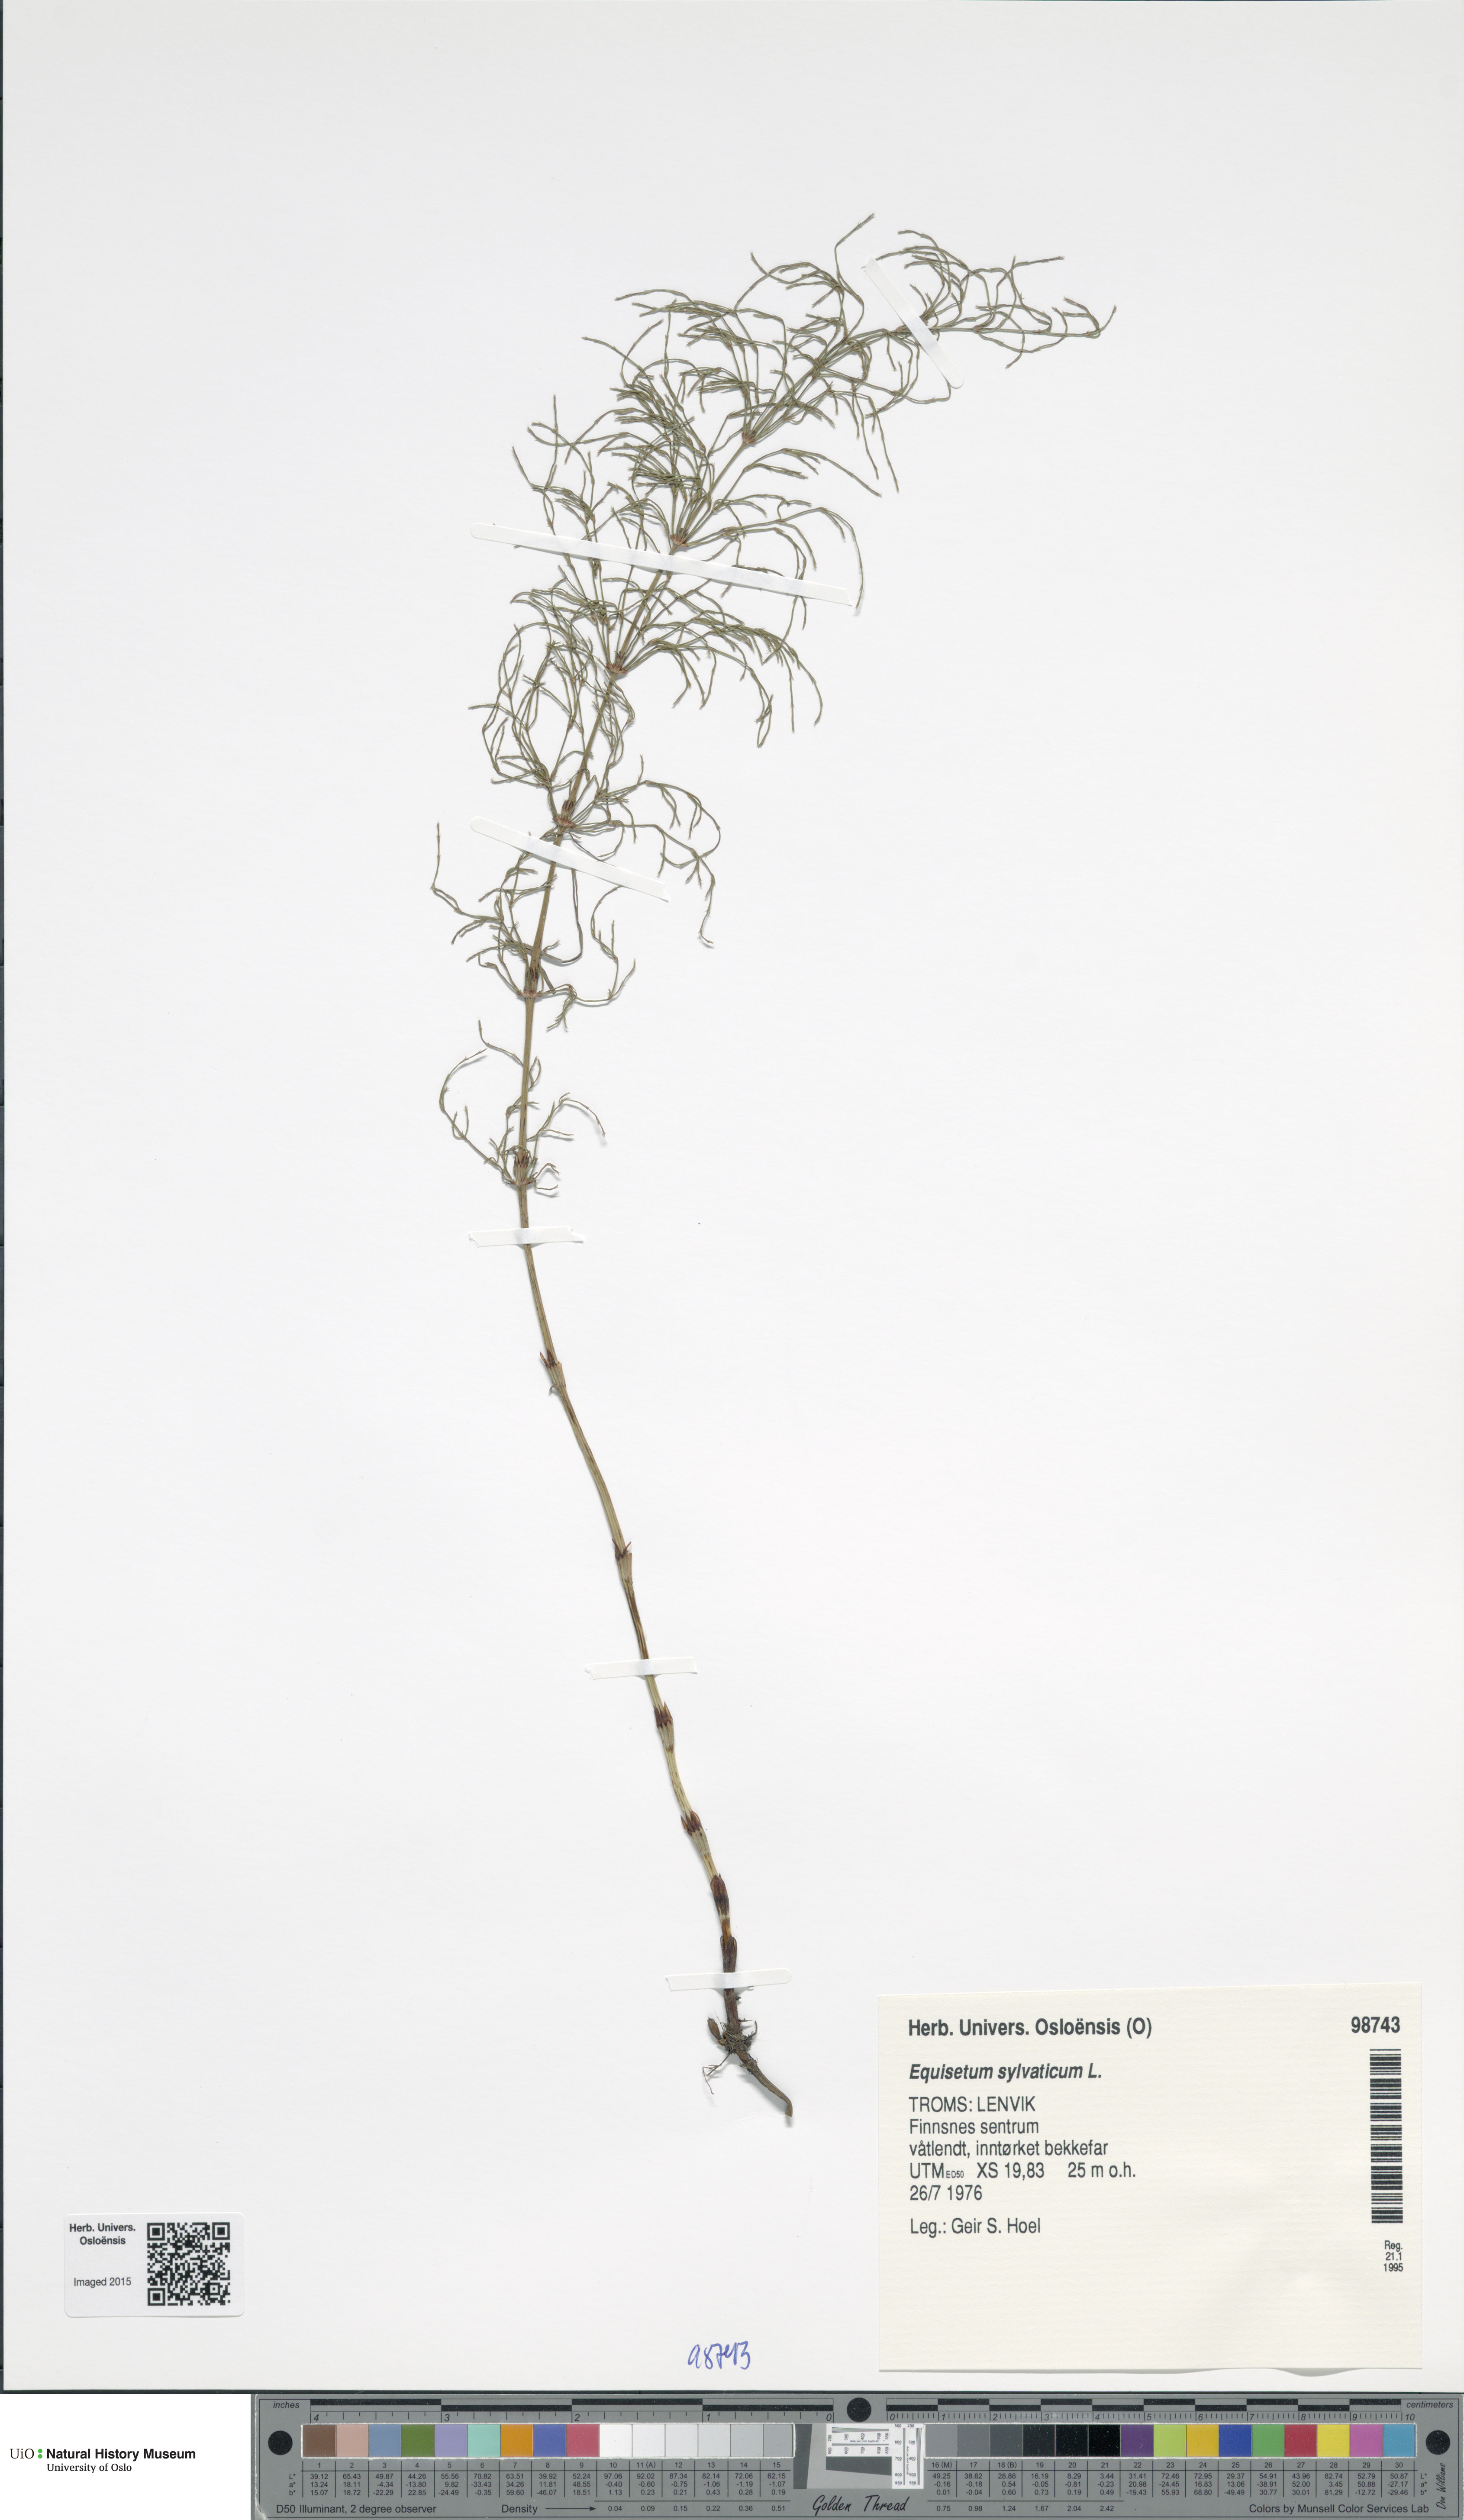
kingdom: Plantae
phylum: Tracheophyta
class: Polypodiopsida
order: Equisetales
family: Equisetaceae
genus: Equisetum
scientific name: Equisetum sylvaticum
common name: Wood horsetail
